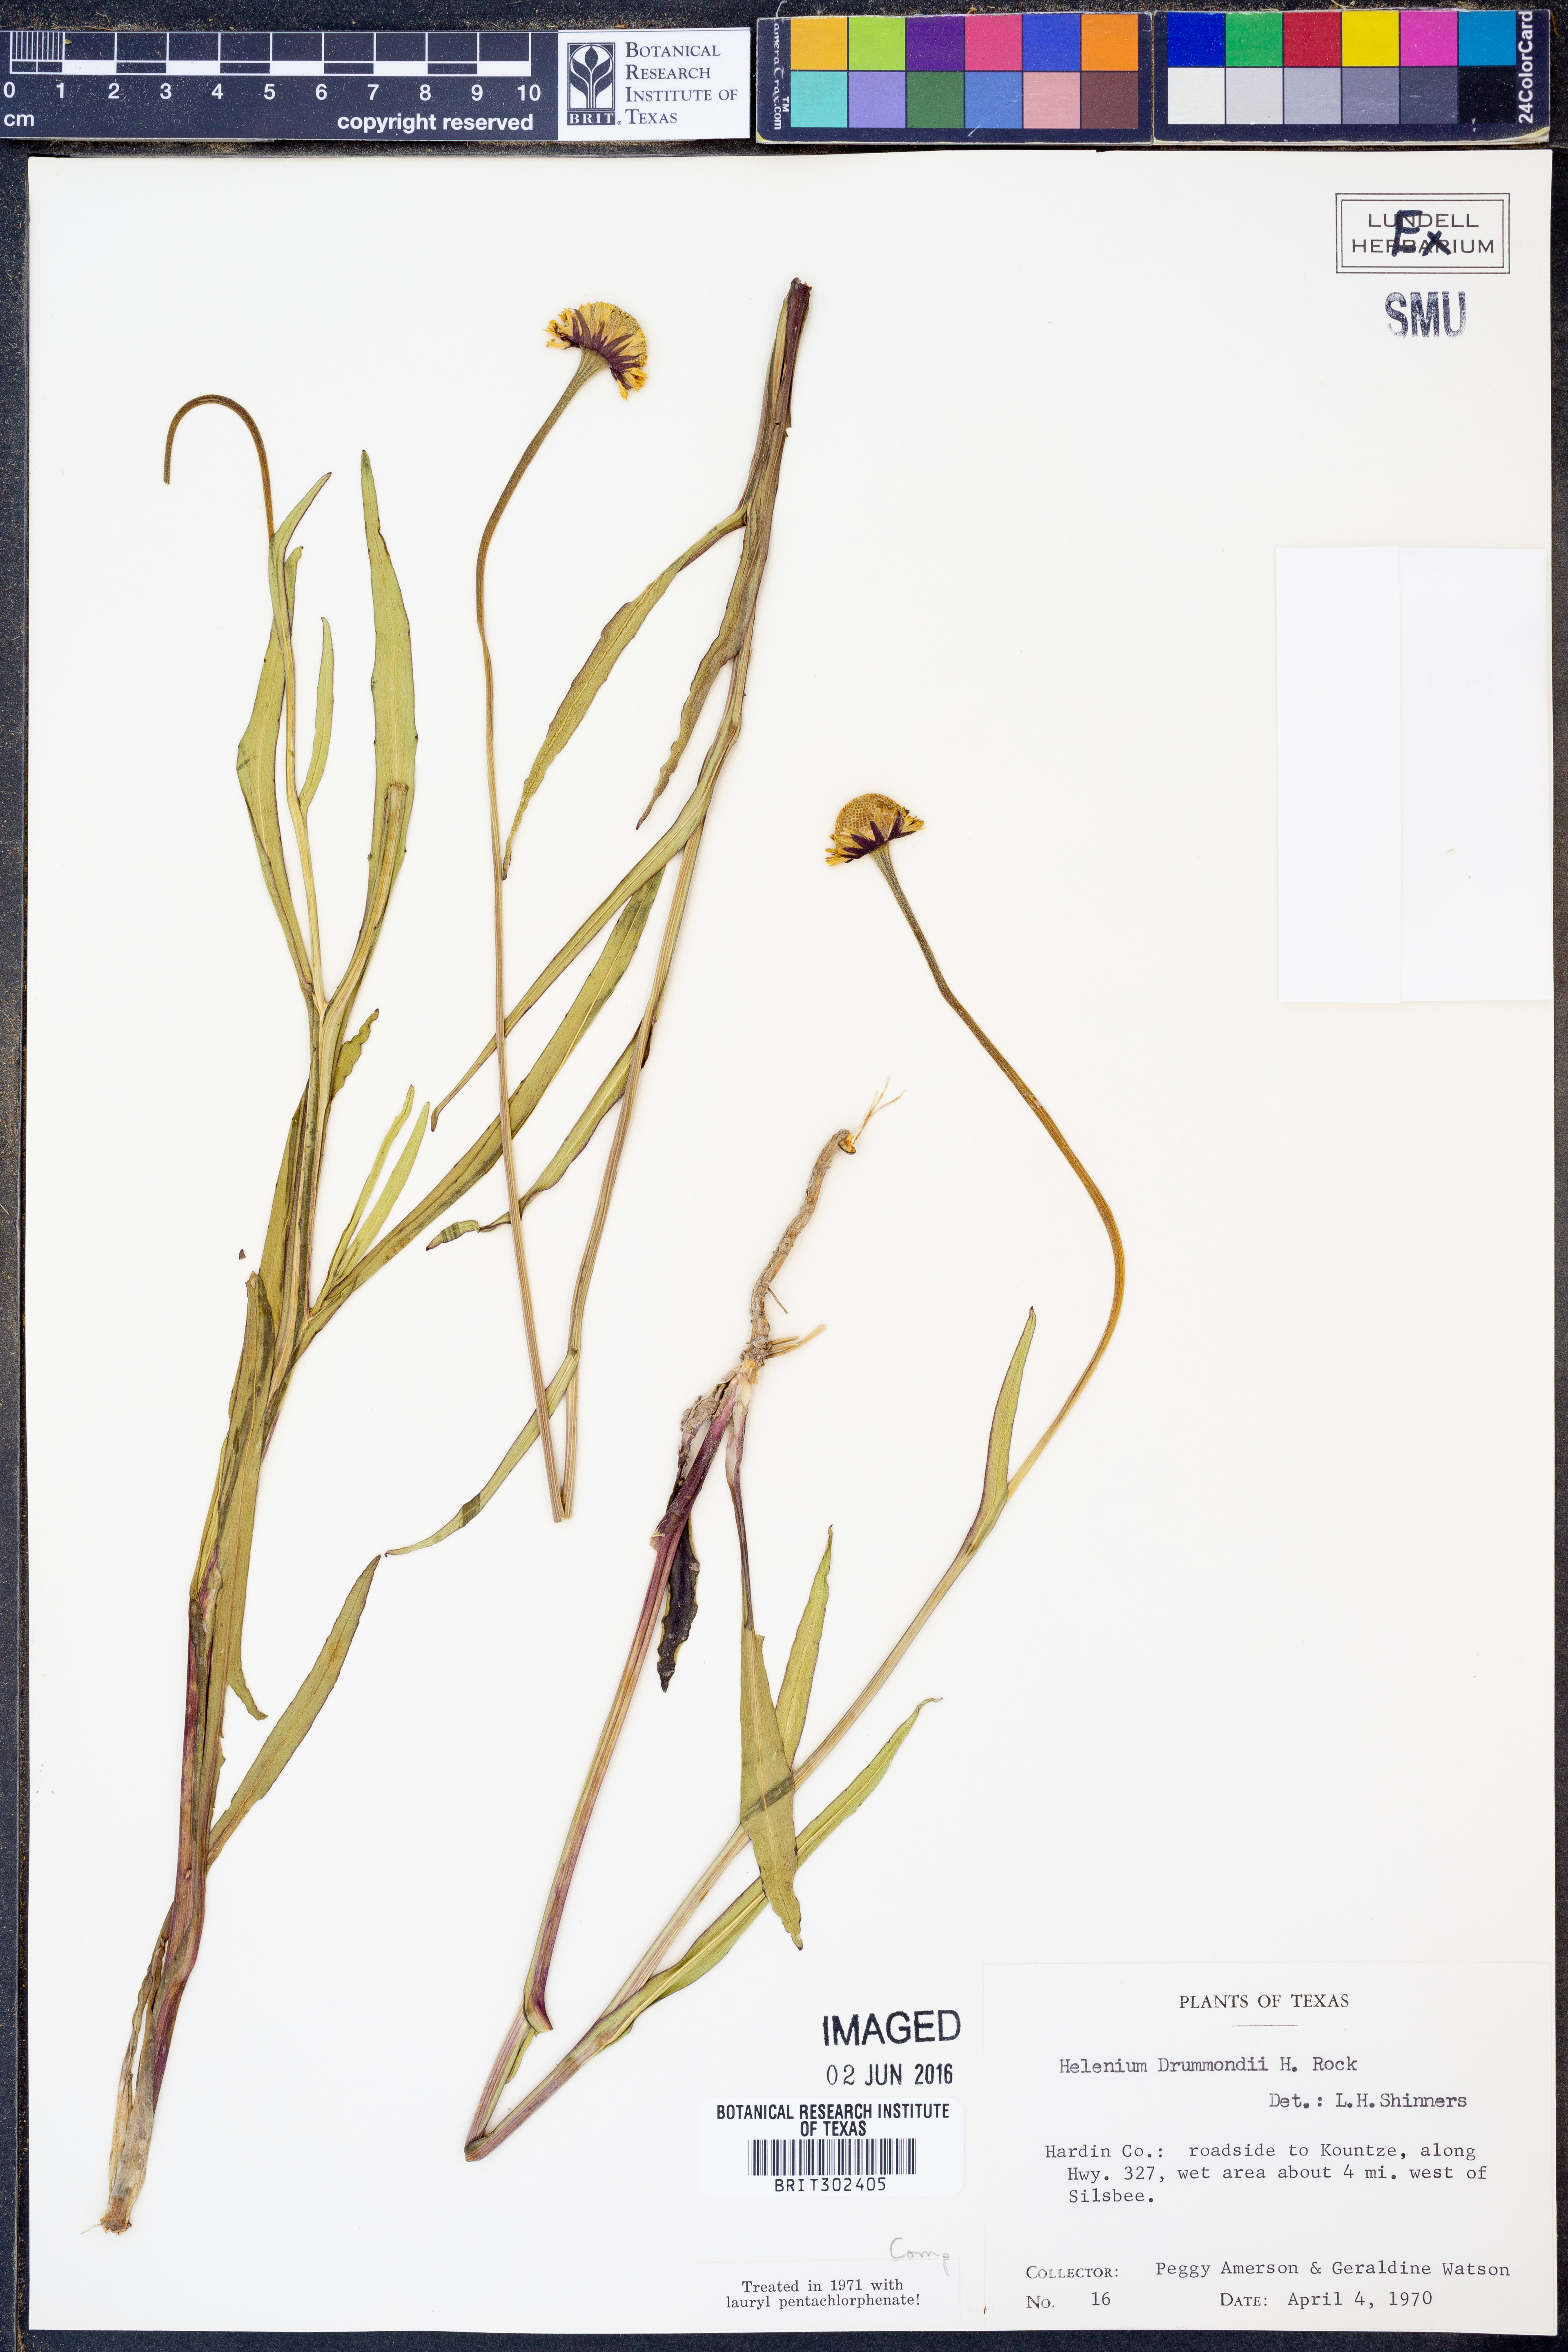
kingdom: Plantae
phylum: Tracheophyta
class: Magnoliopsida
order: Asterales
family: Asteraceae
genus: Helenium
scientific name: Helenium drummondii
